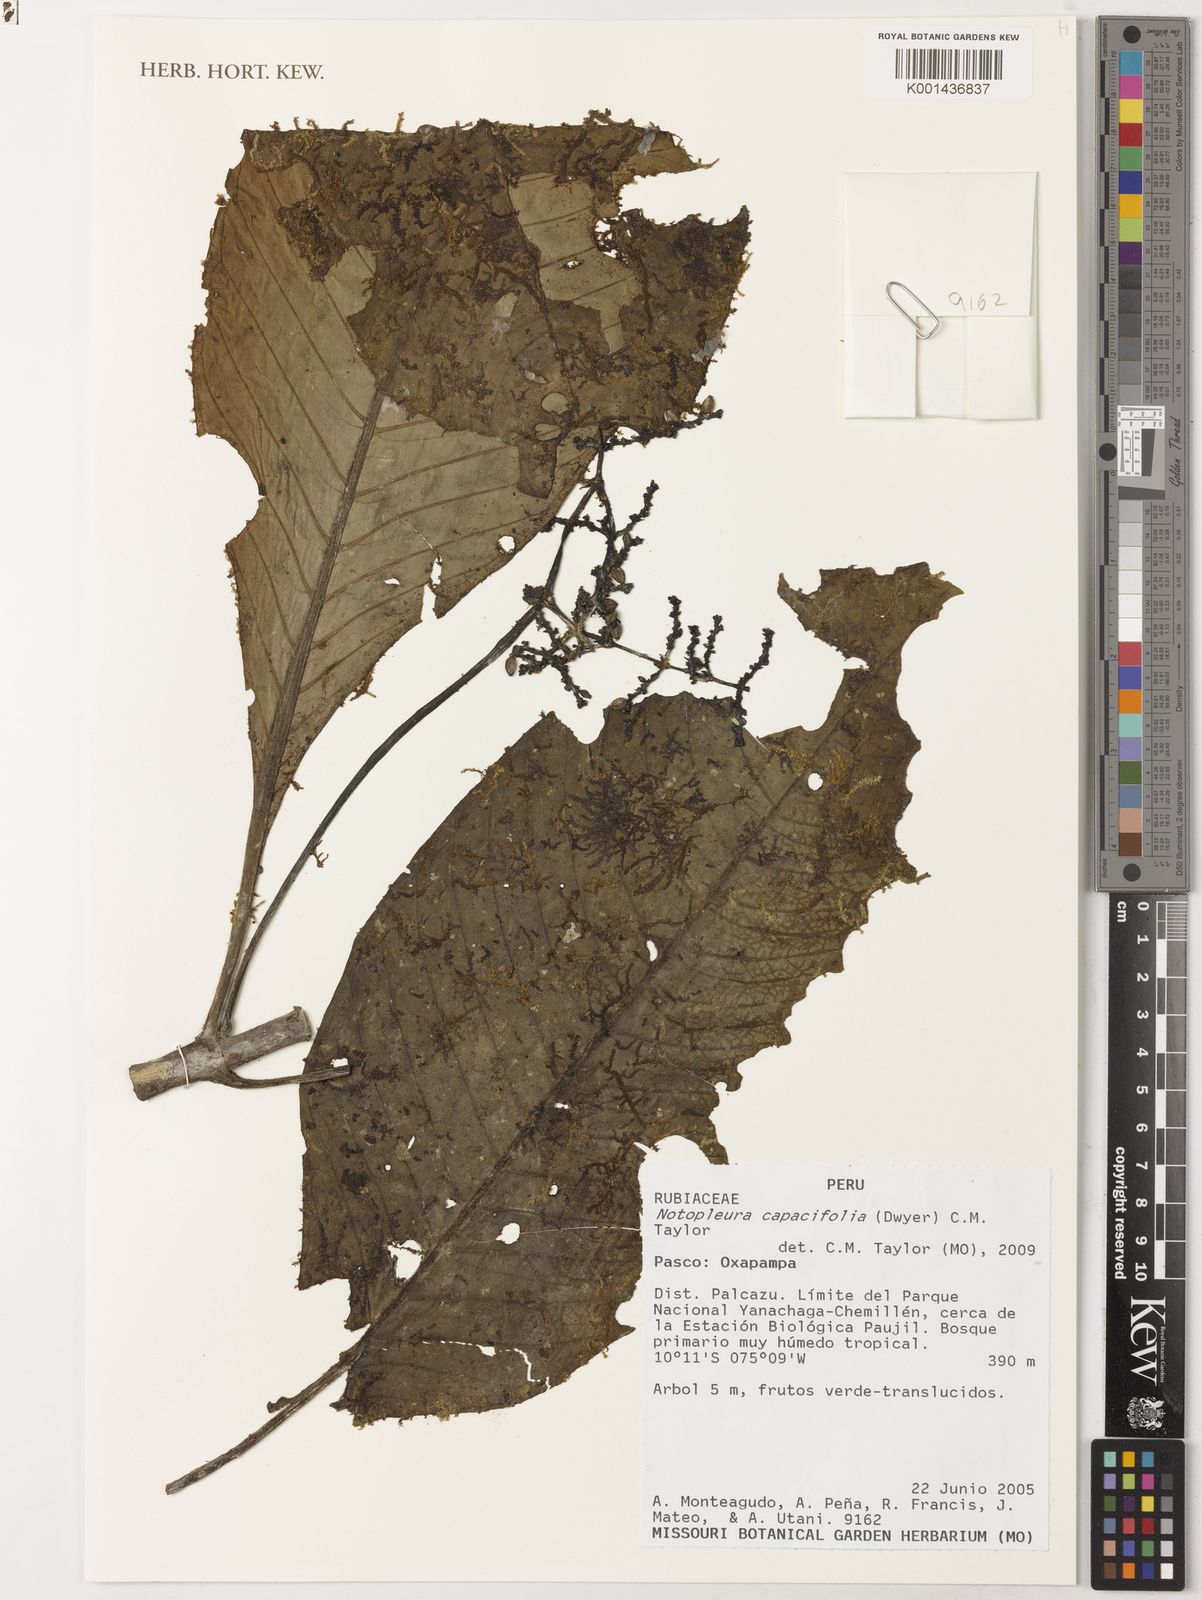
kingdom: Plantae
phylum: Tracheophyta
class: Magnoliopsida
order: Gentianales
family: Rubiaceae
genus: Notopleura
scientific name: Notopleura capacifolia
